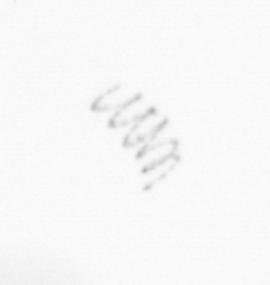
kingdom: Chromista
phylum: Ochrophyta
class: Bacillariophyceae
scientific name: Bacillariophyceae
